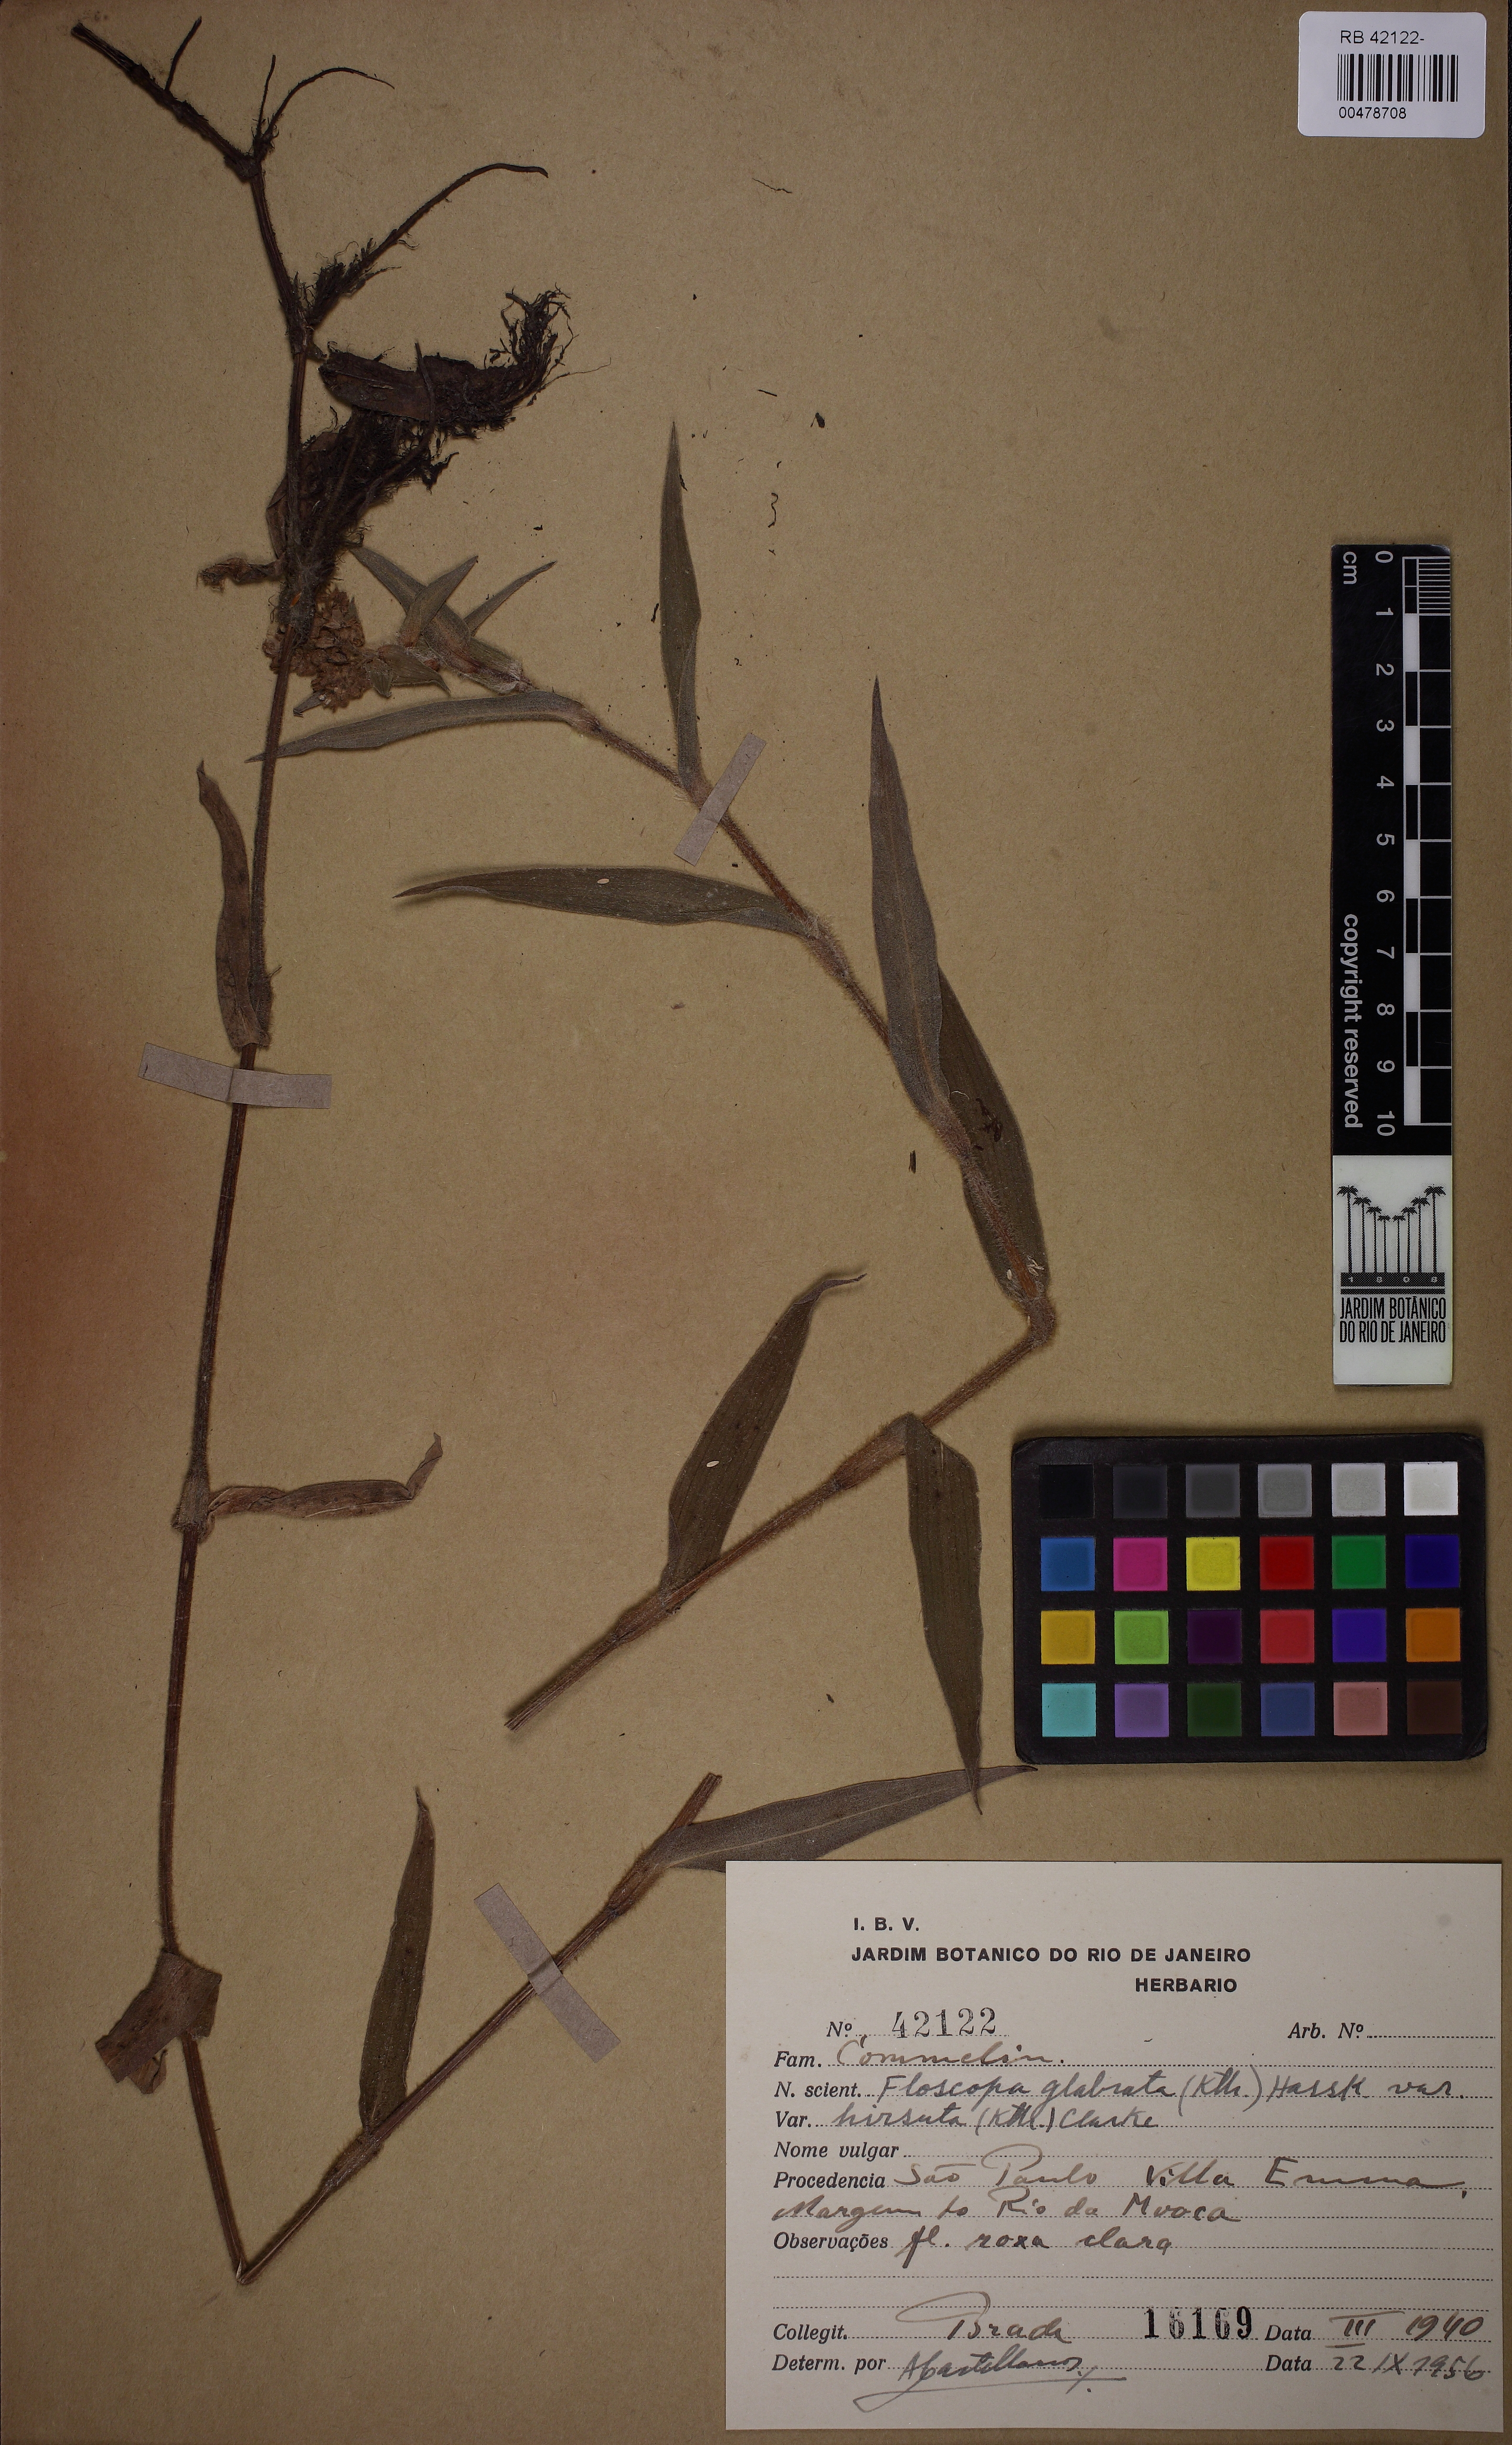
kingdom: Plantae
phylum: Tracheophyta
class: Liliopsida
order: Commelinales
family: Commelinaceae
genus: Floscopa
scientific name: Floscopa glabrata
